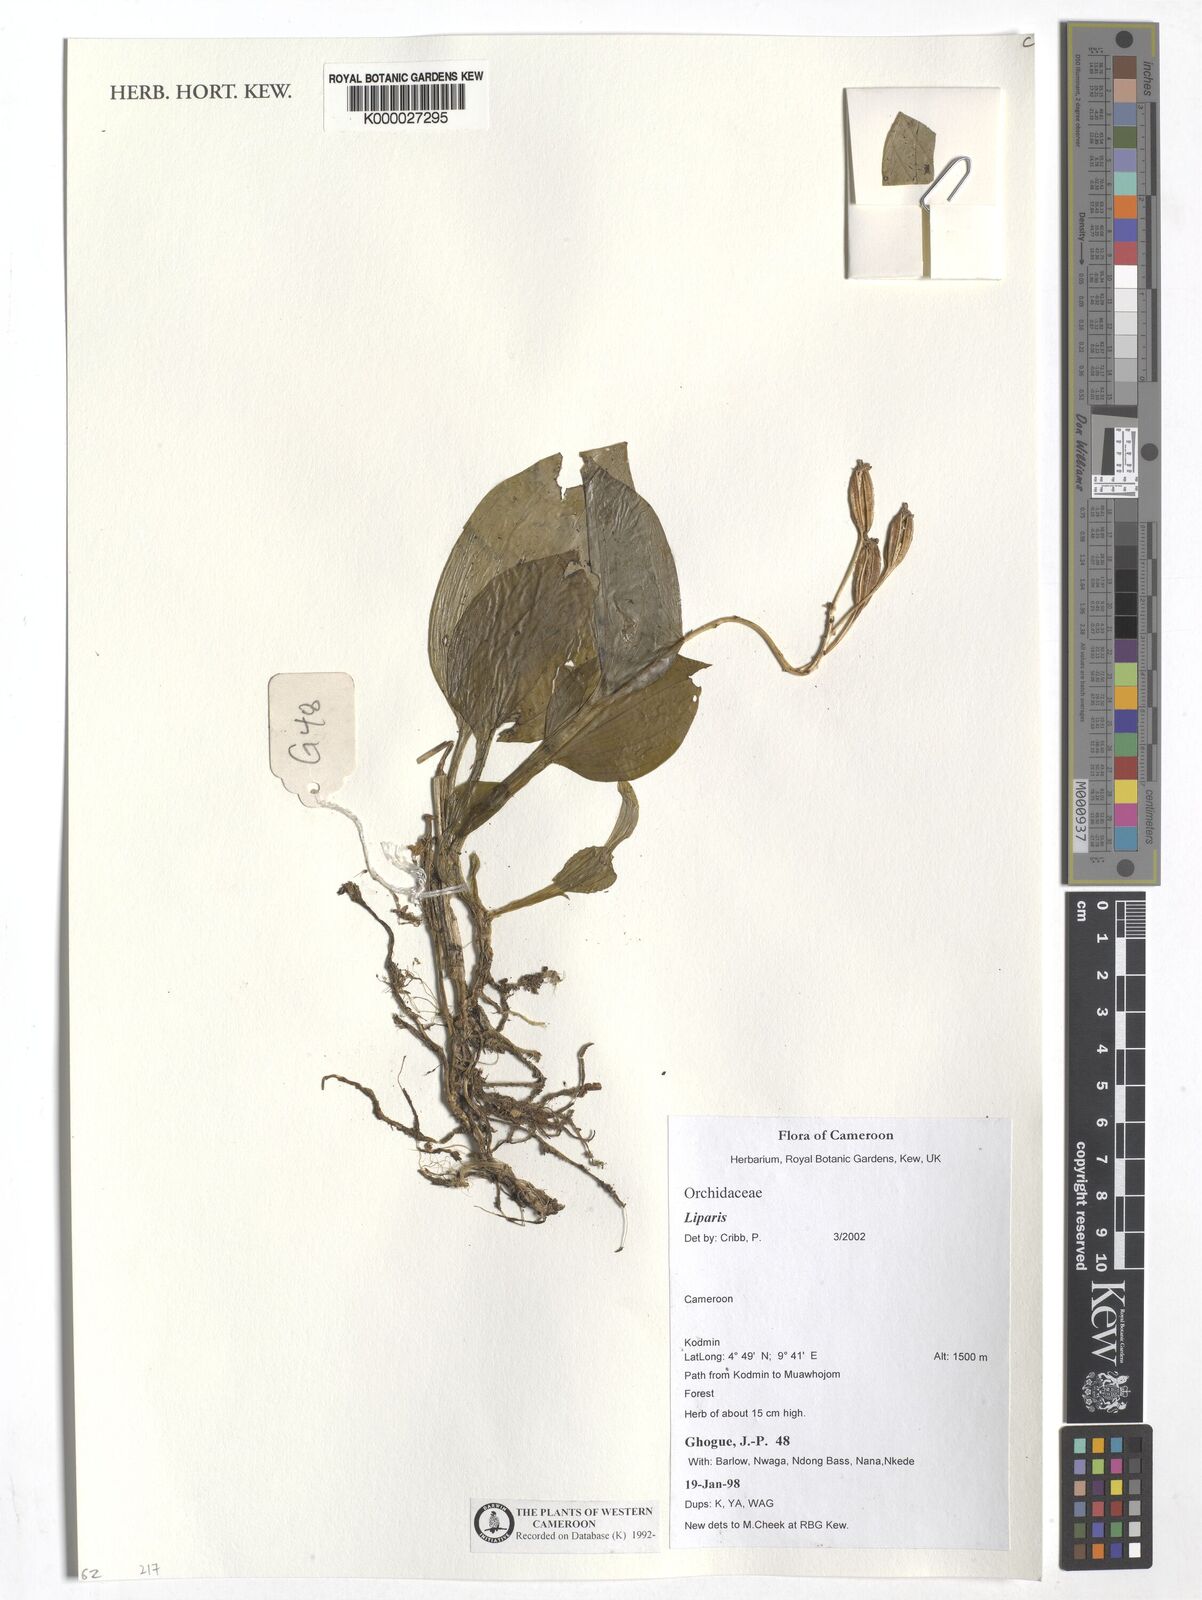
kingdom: Plantae
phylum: Tracheophyta
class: Liliopsida
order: Asparagales
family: Orchidaceae
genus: Liparis
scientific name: Liparis
